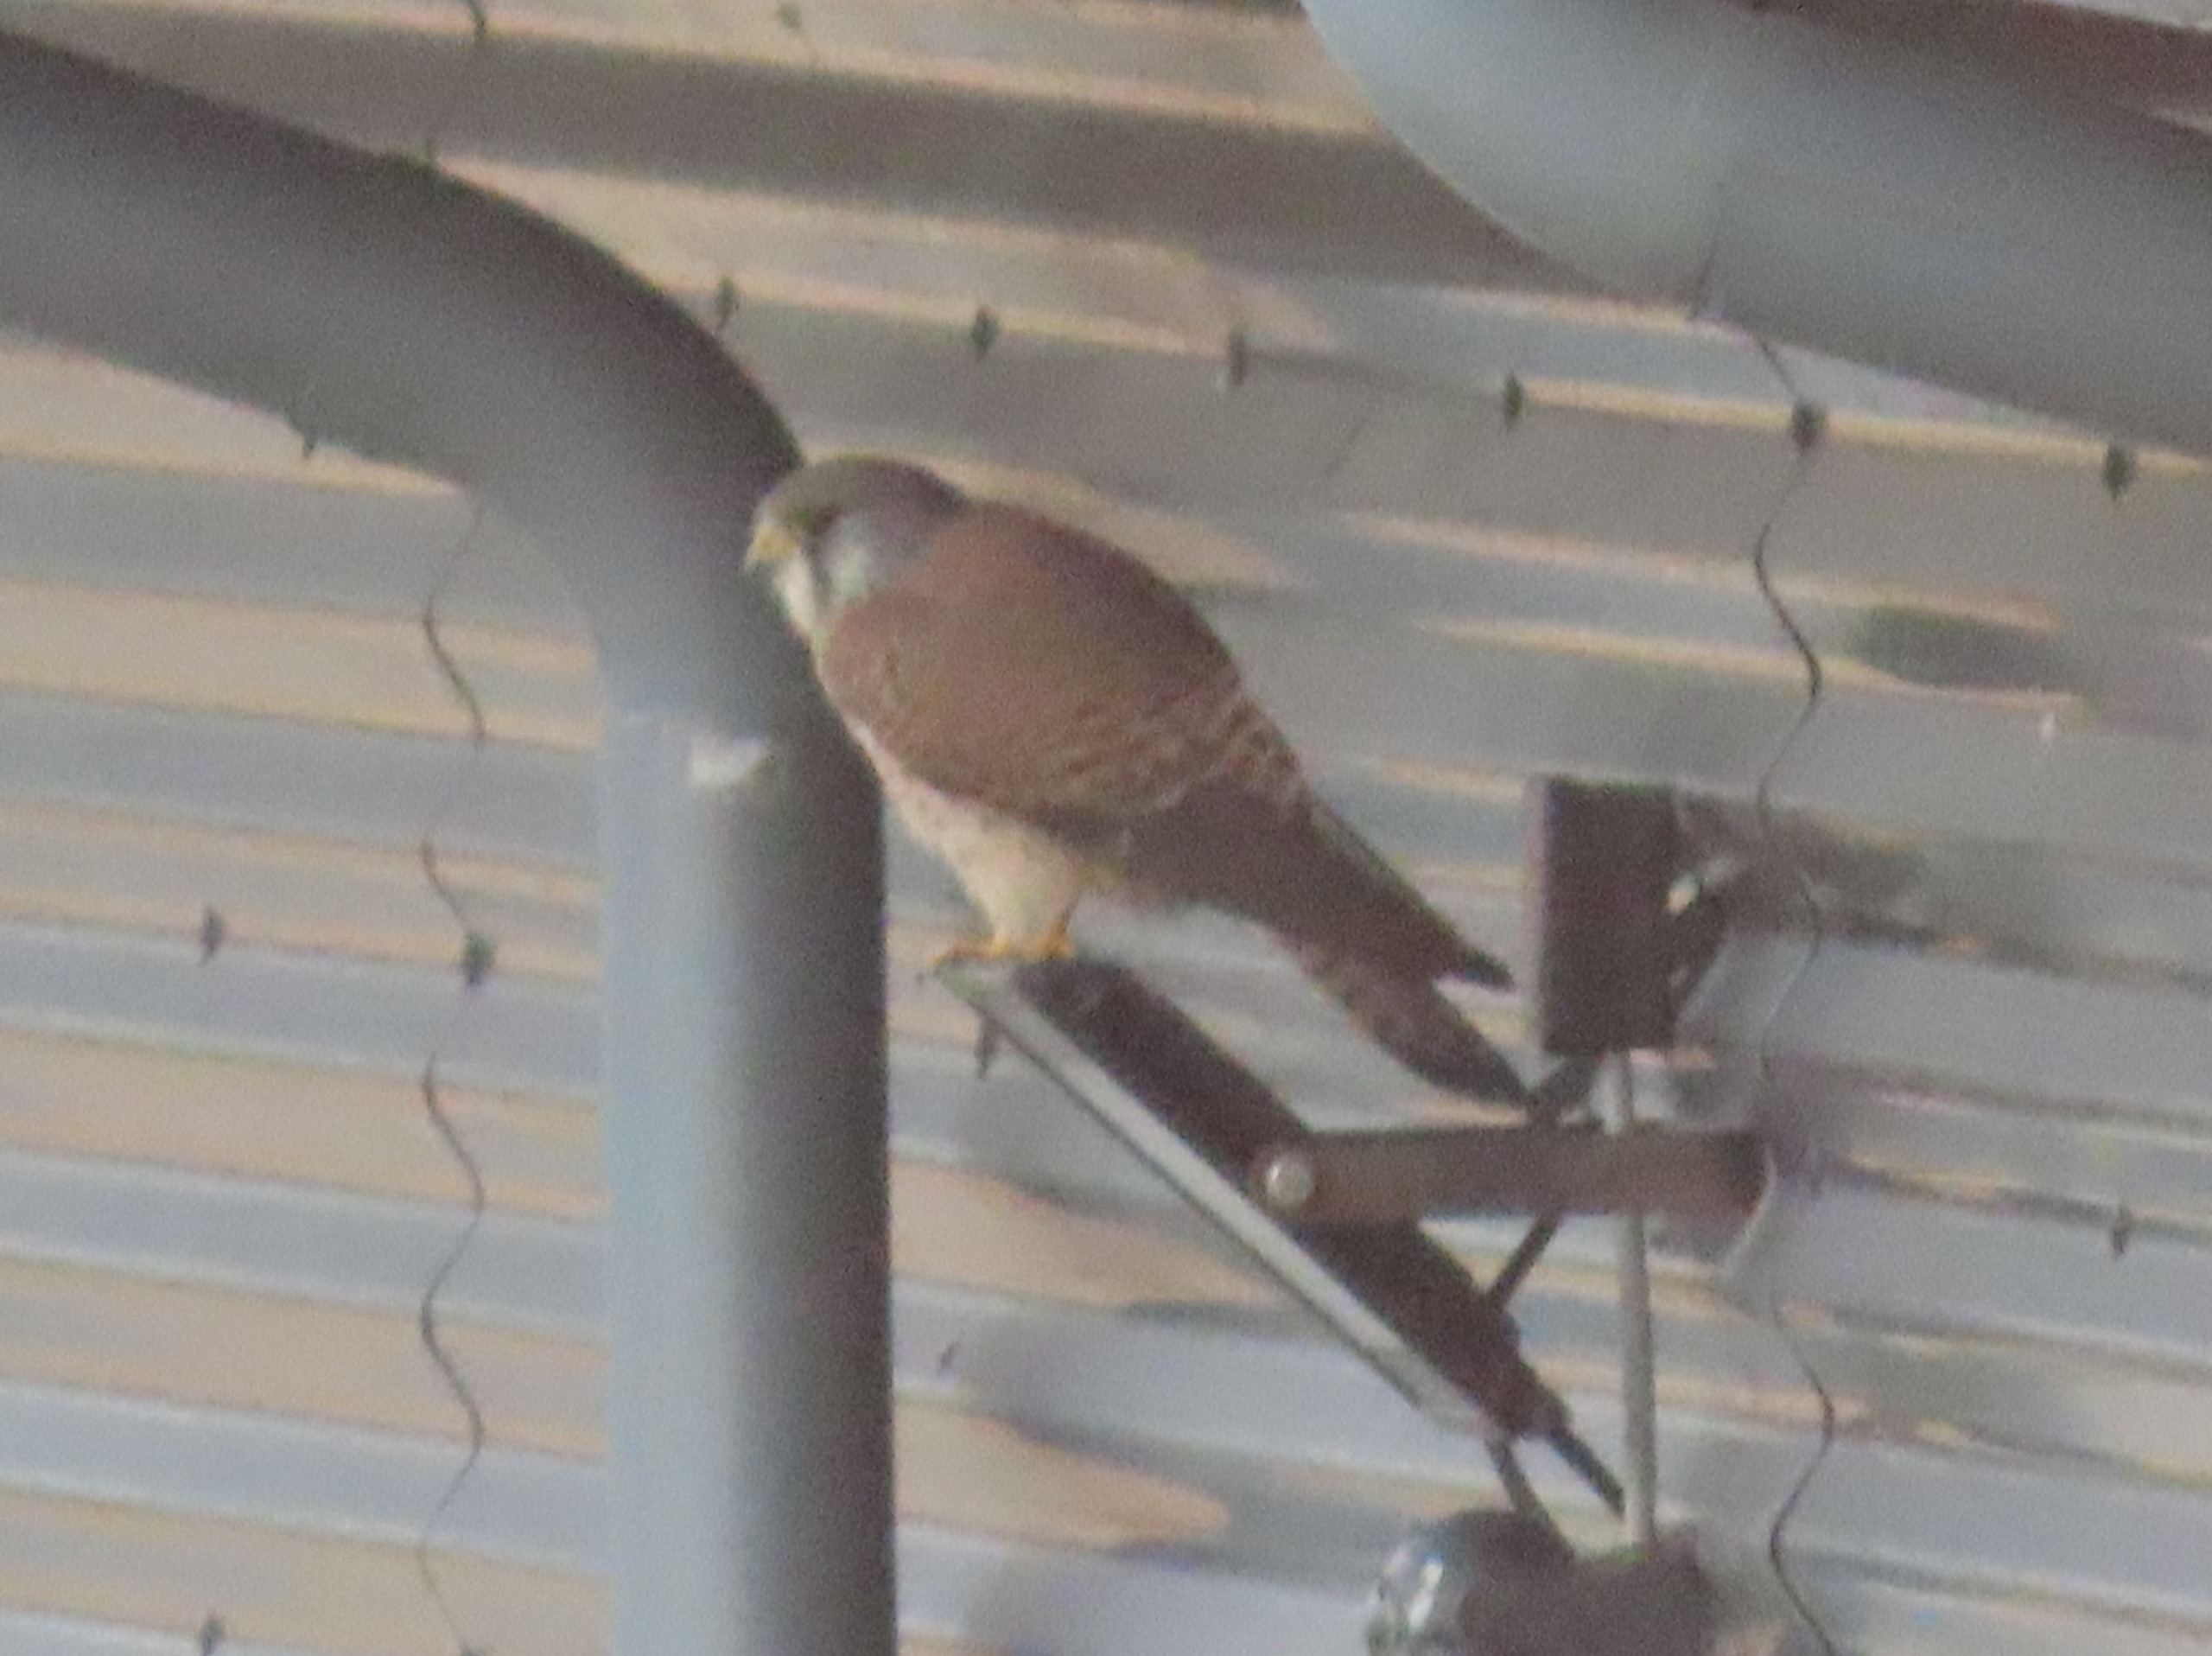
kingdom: Animalia
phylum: Chordata
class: Aves
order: Falconiformes
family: Falconidae
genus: Falco
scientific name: Falco tinnunculus
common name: Tårnfalk
